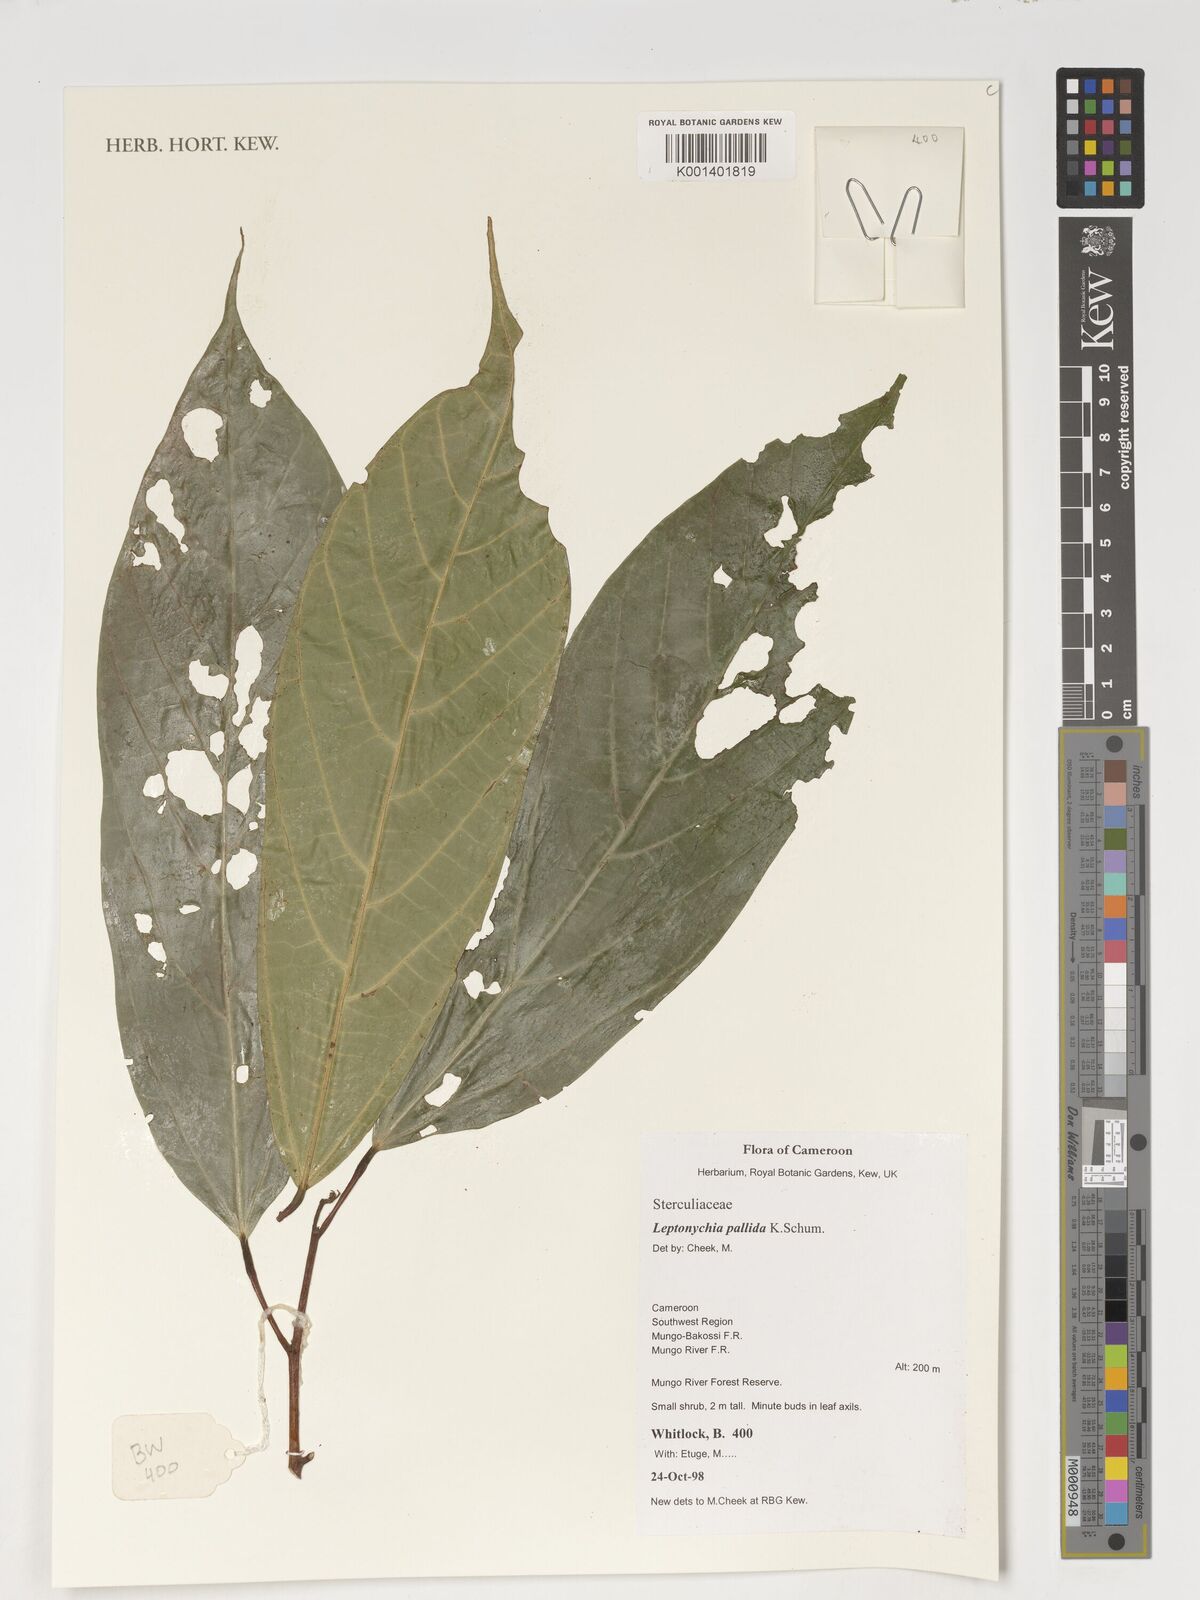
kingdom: Plantae
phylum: Tracheophyta
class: Magnoliopsida
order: Malvales
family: Malvaceae
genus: Leptonychia
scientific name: Leptonychia pallida
